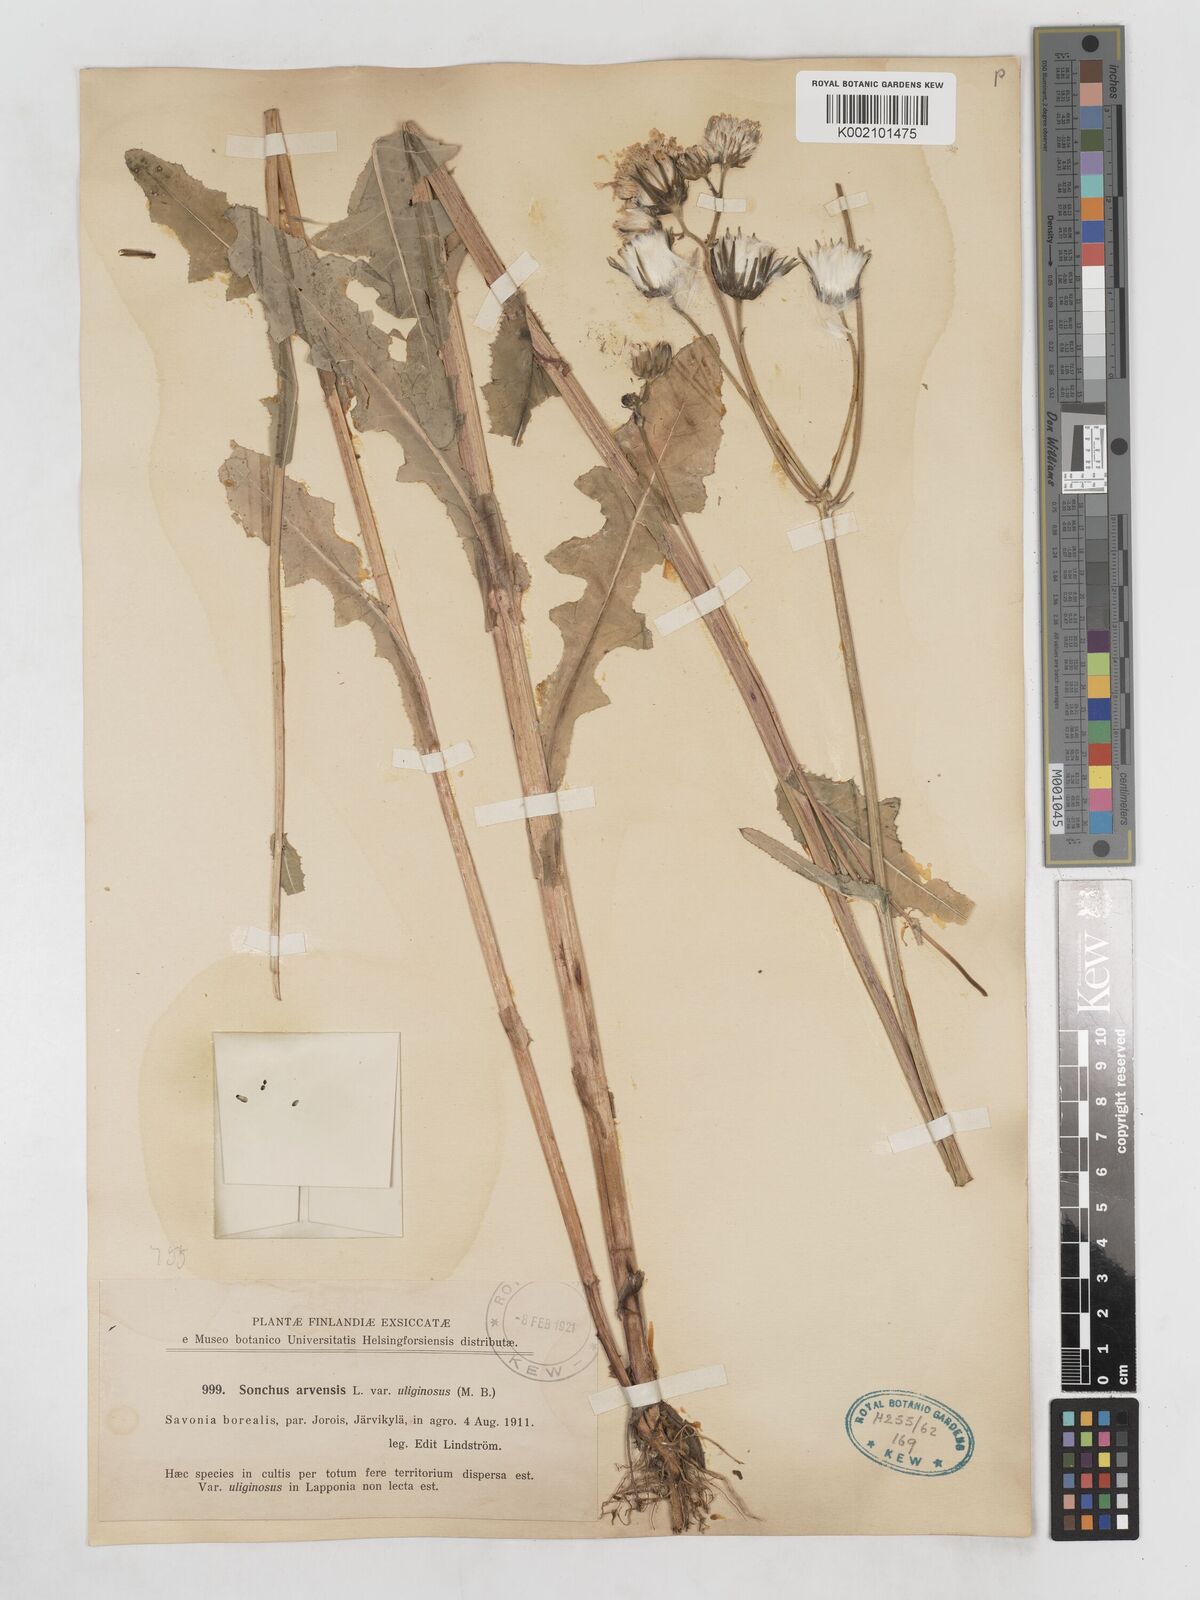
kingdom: Plantae
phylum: Tracheophyta
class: Magnoliopsida
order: Asterales
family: Asteraceae
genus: Sonchus
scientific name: Sonchus arvensis
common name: Perennial sow-thistle
